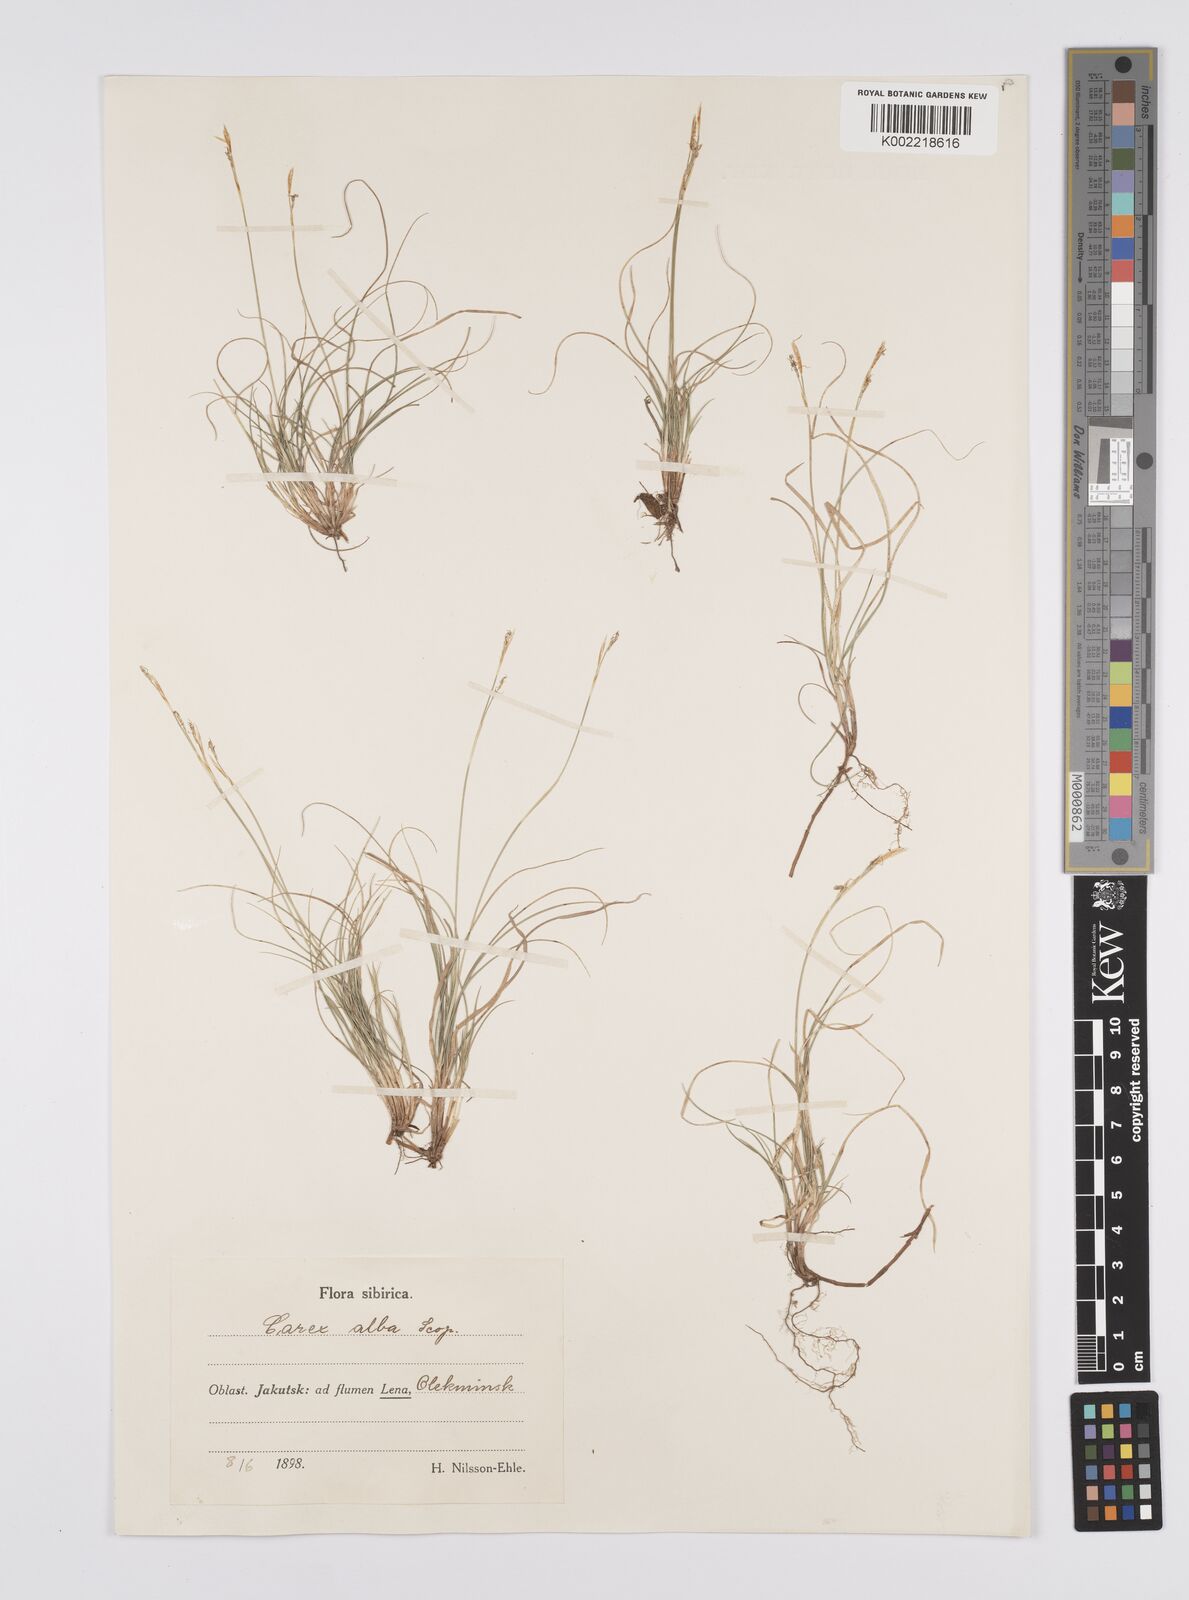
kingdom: Plantae
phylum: Tracheophyta
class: Liliopsida
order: Poales
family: Cyperaceae
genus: Carex
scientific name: Carex alba
